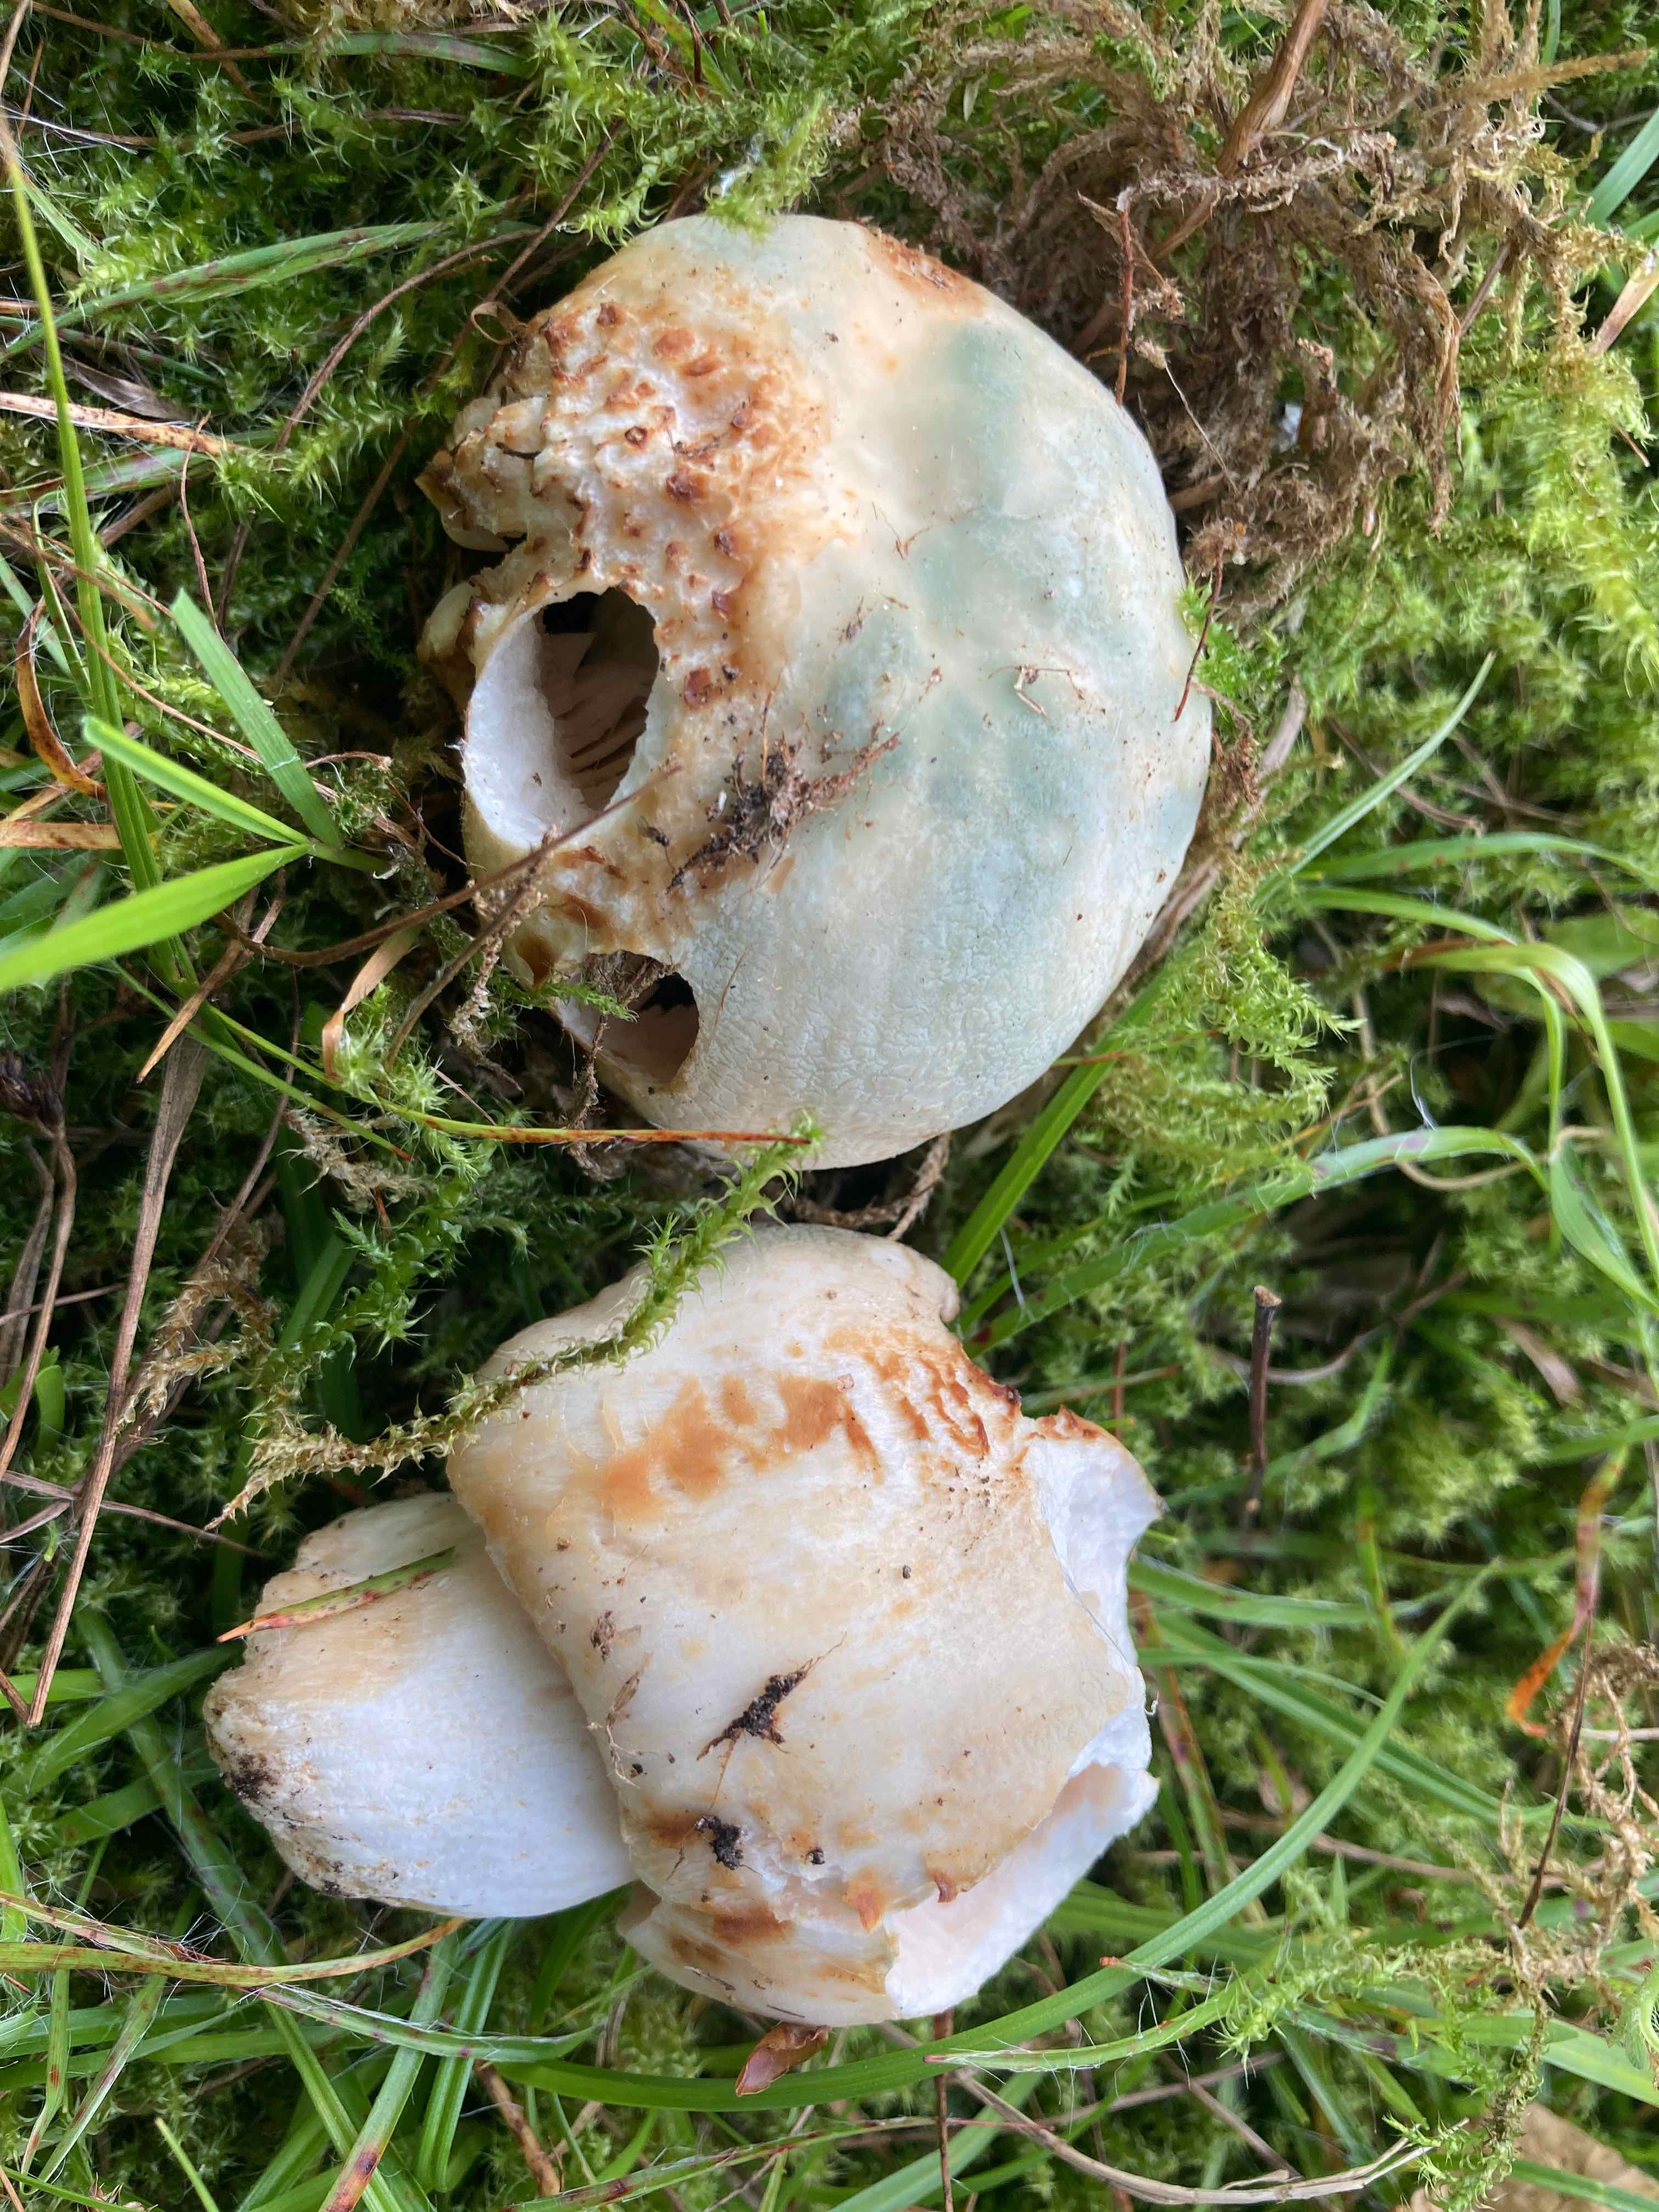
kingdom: Fungi
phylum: Basidiomycota
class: Agaricomycetes
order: Russulales
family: Russulaceae
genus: Russula
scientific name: Russula virescens
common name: spanskgrøn skørhat
